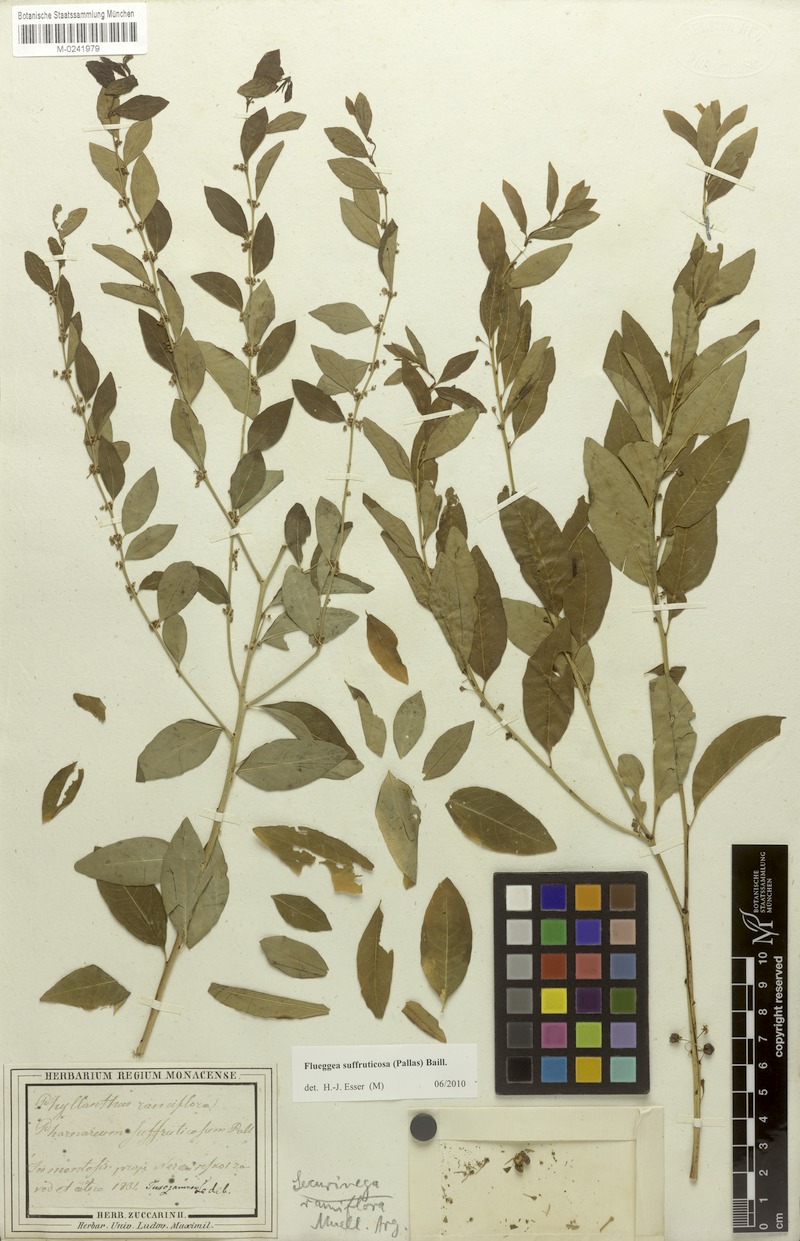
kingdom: Plantae
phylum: Tracheophyta
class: Magnoliopsida
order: Malpighiales
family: Phyllanthaceae
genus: Flueggea
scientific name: Flueggea suffruticosa
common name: Arching bushweed
